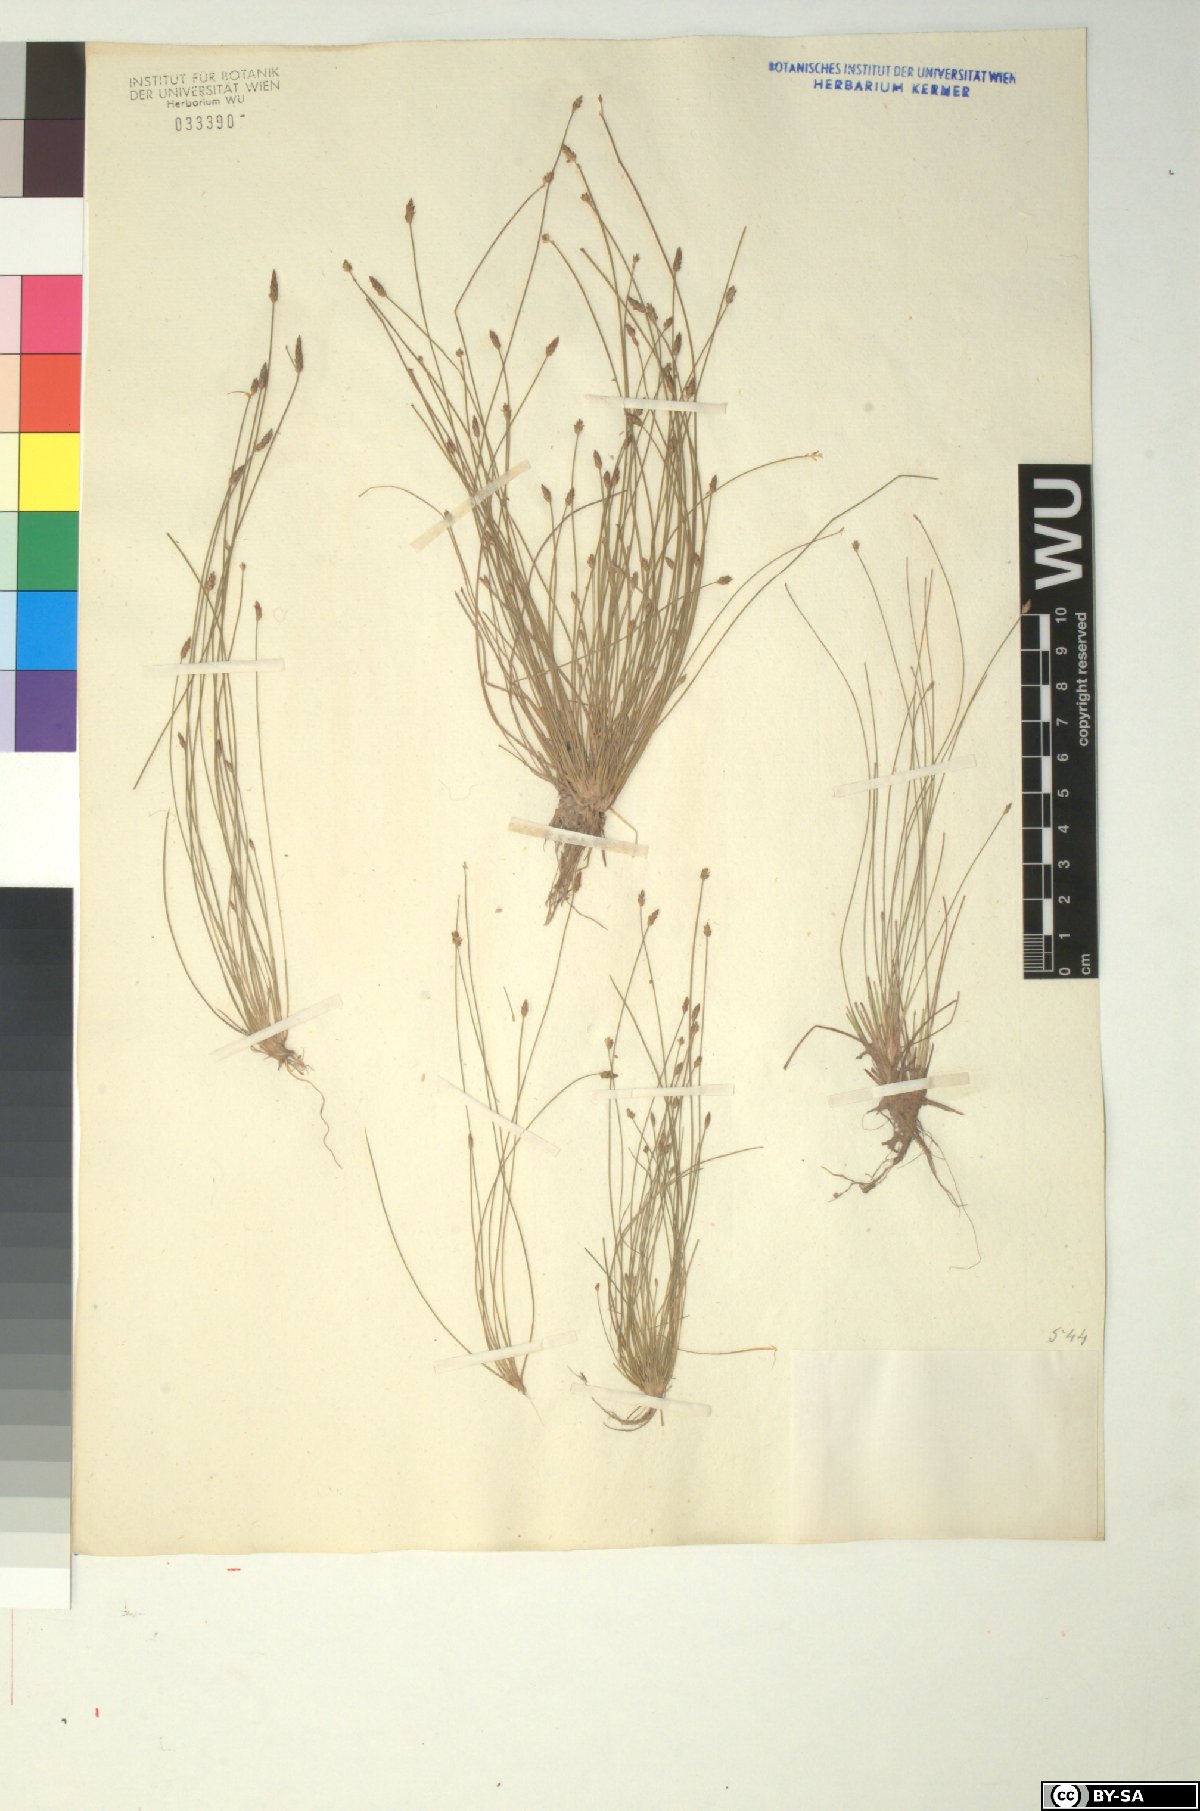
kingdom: Plantae
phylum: Tracheophyta
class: Liliopsida
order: Poales
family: Cyperaceae
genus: Eleocharis
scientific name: Eleocharis carniolica
